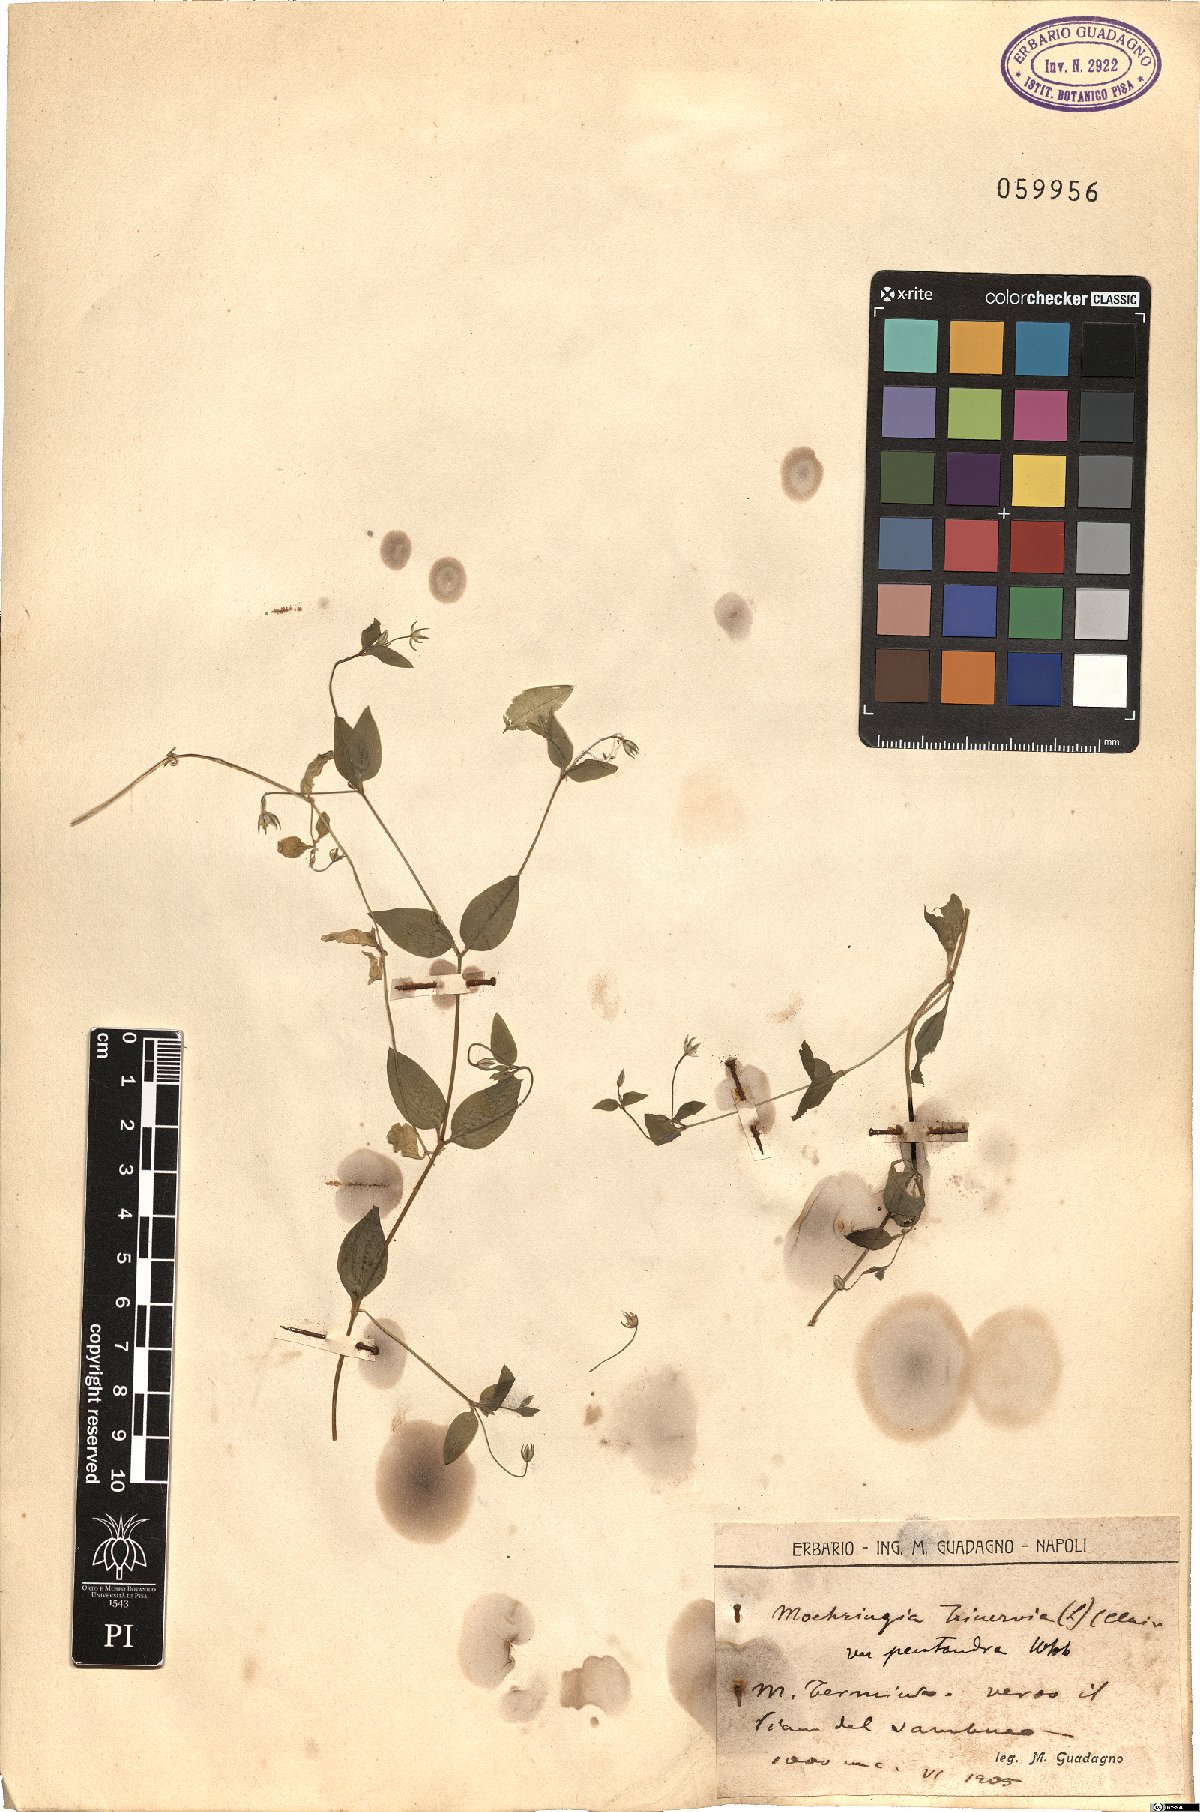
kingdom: Plantae
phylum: Tracheophyta
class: Magnoliopsida
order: Caryophyllales
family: Caryophyllaceae
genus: Moehringia
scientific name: Moehringia trinervia
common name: Three-nerved sandwort
